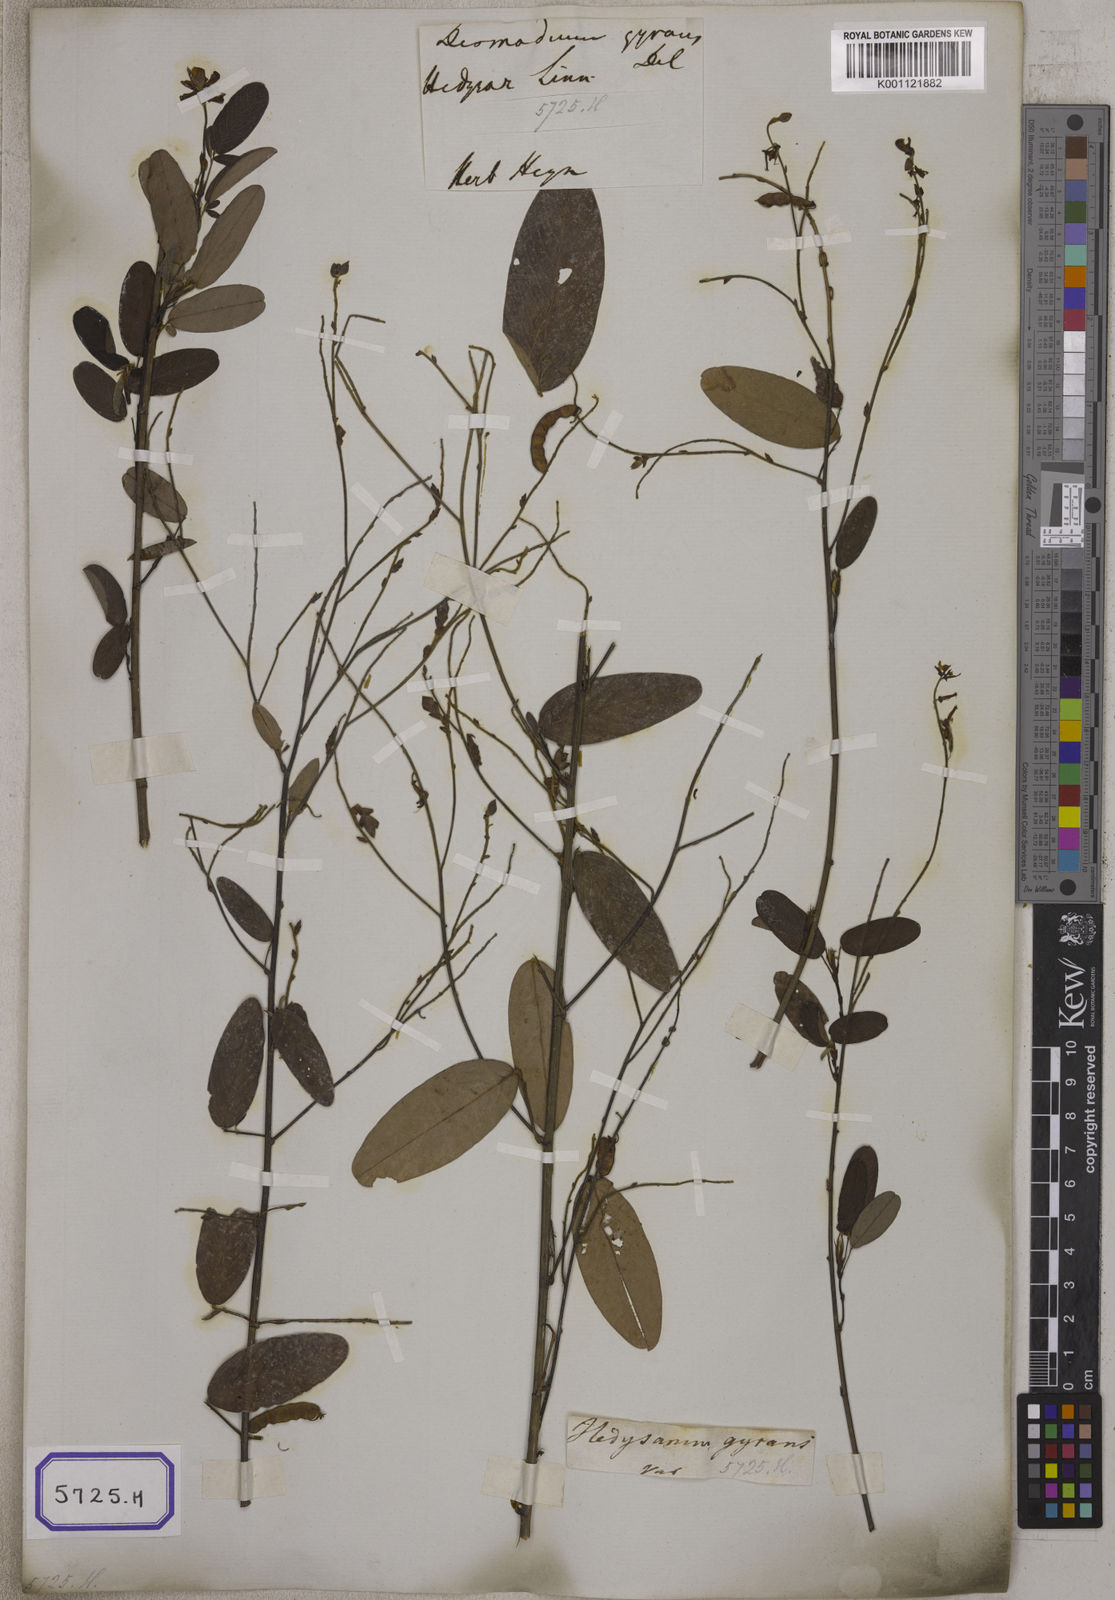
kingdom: Plantae
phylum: Tracheophyta
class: Magnoliopsida
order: Fabales
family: Fabaceae
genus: Codariocalyx
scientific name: Codariocalyx motorius
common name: Telegraph-plant
